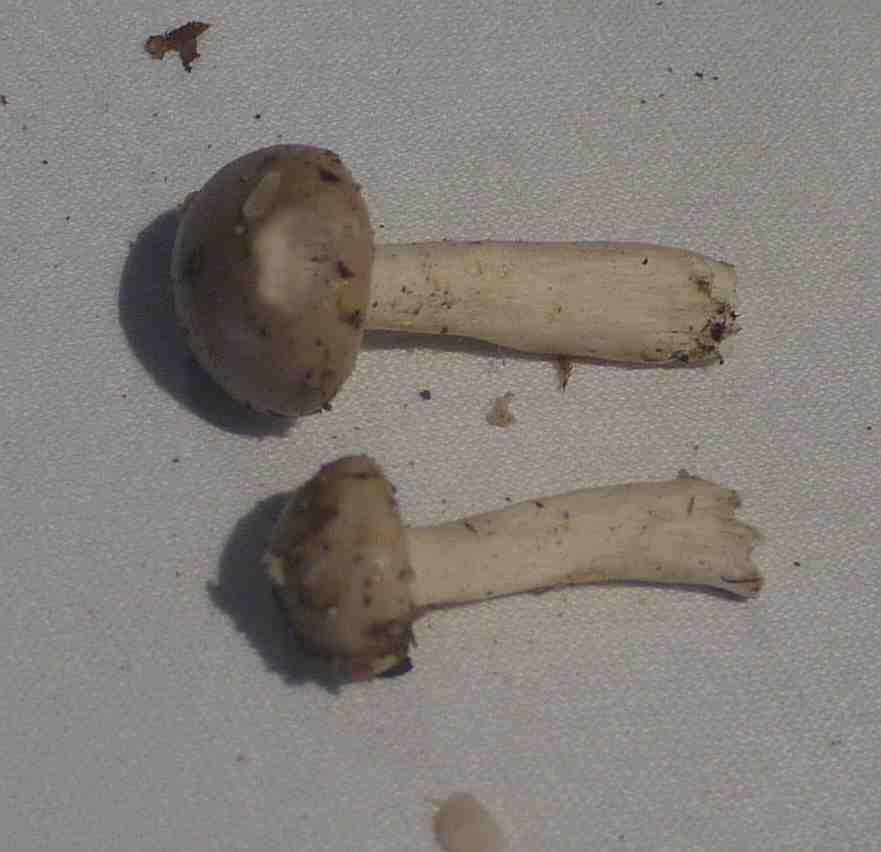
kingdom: Fungi
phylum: Basidiomycota
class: Agaricomycetes
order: Agaricales
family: Hygrophoraceae
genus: Hygrophorus
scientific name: Hygrophorus agathosmus
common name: vellugtende sneglehat
